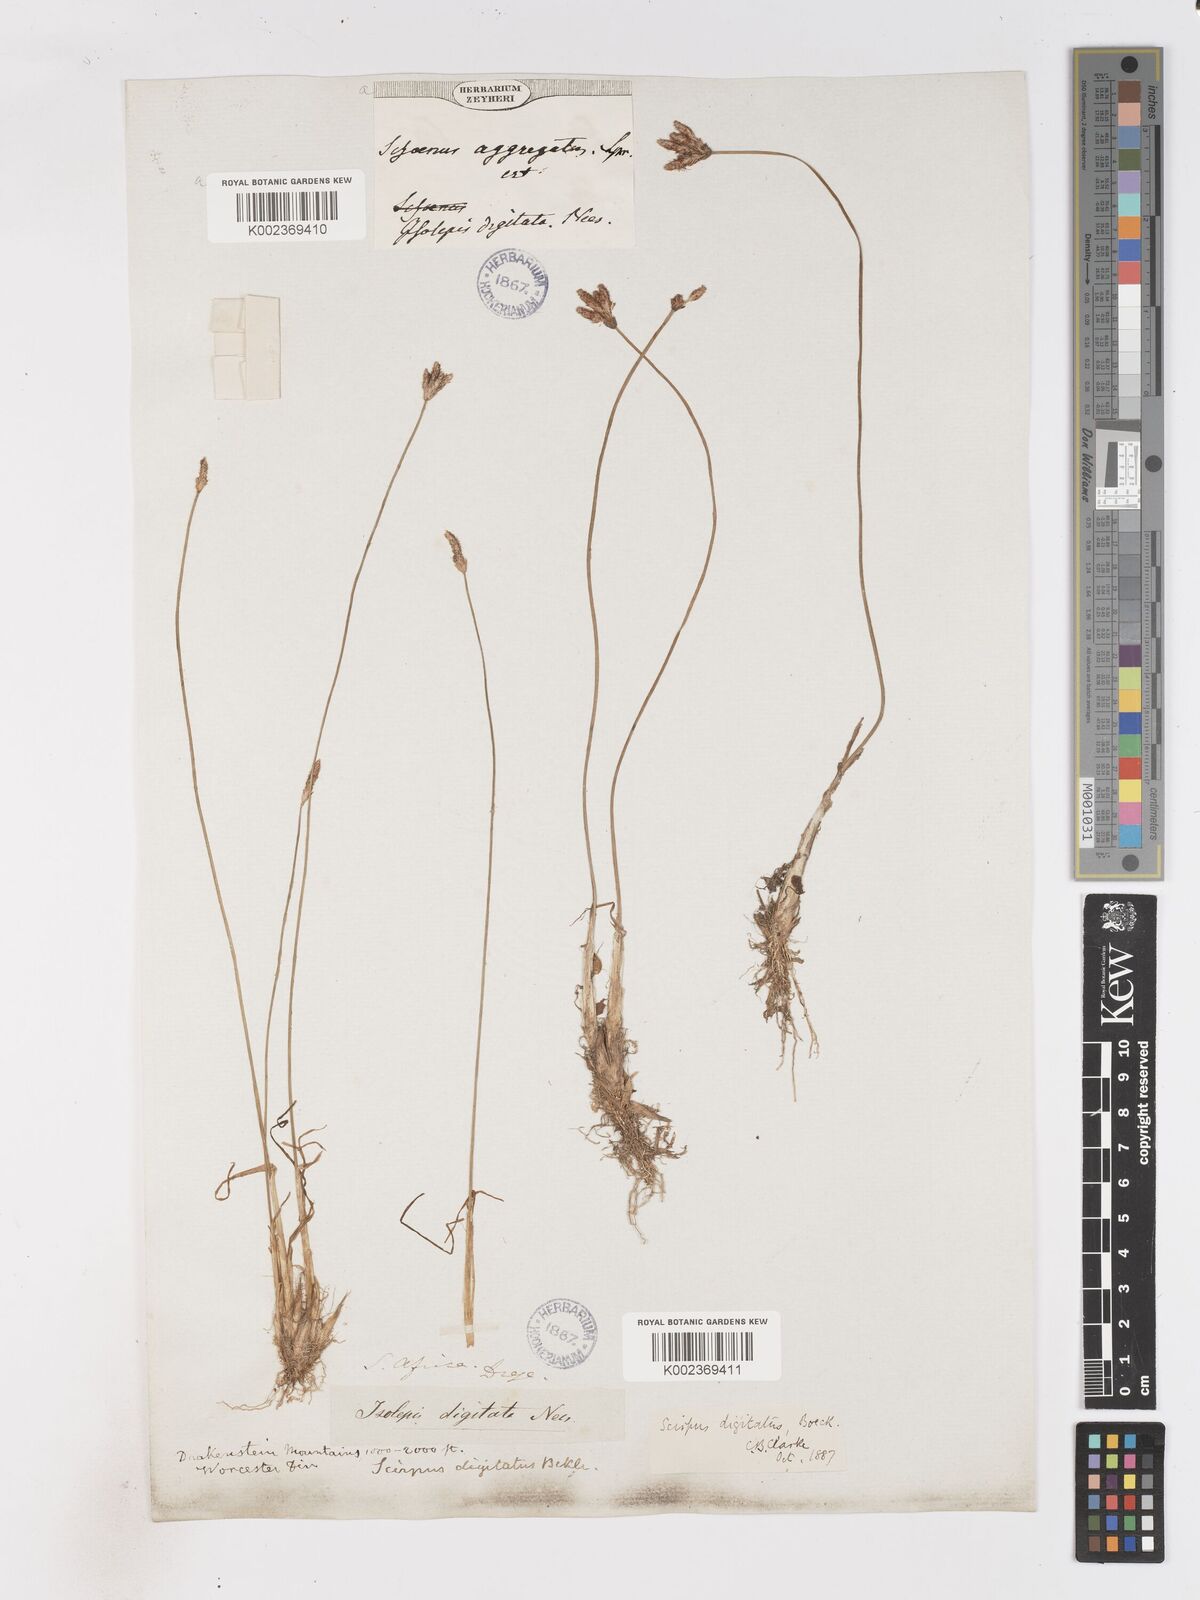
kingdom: Plantae
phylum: Tracheophyta
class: Liliopsida
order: Poales
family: Cyperaceae
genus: Isolepis
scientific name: Isolepis digitata
